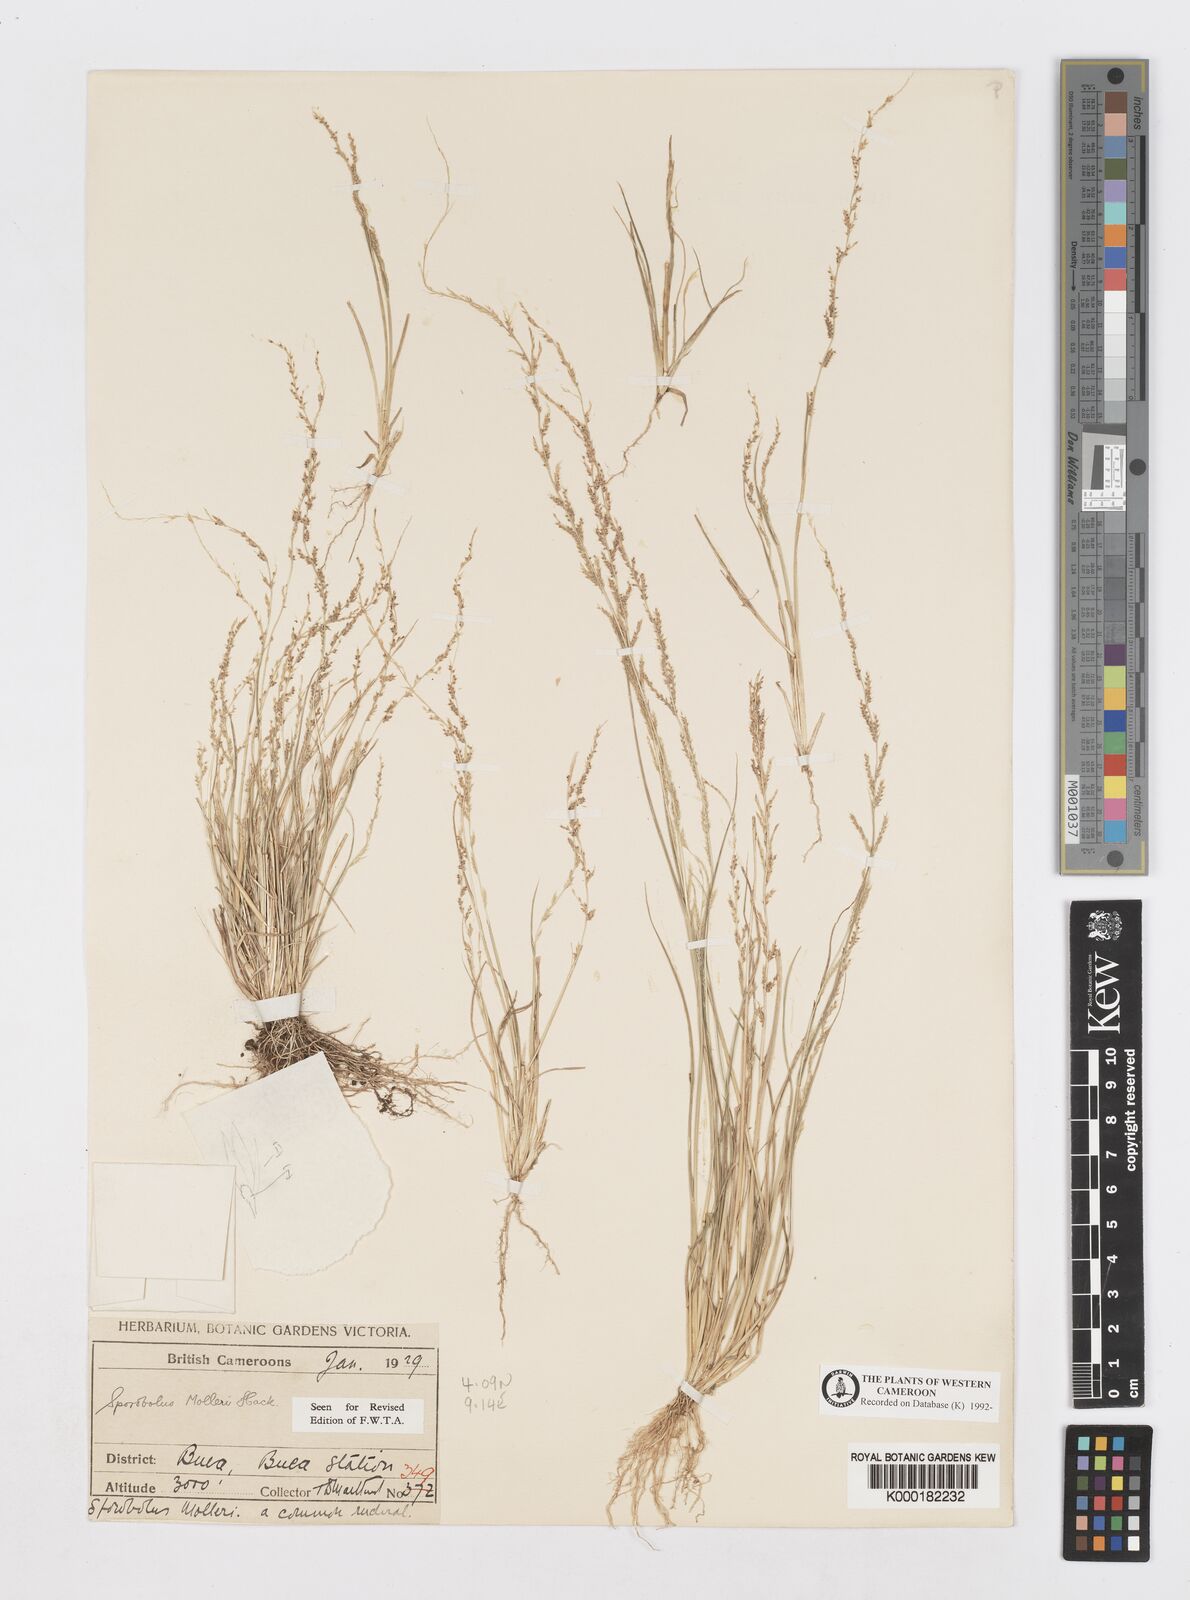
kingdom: Plantae
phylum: Tracheophyta
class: Liliopsida
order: Poales
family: Poaceae
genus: Sporobolus
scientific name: Sporobolus molleri
